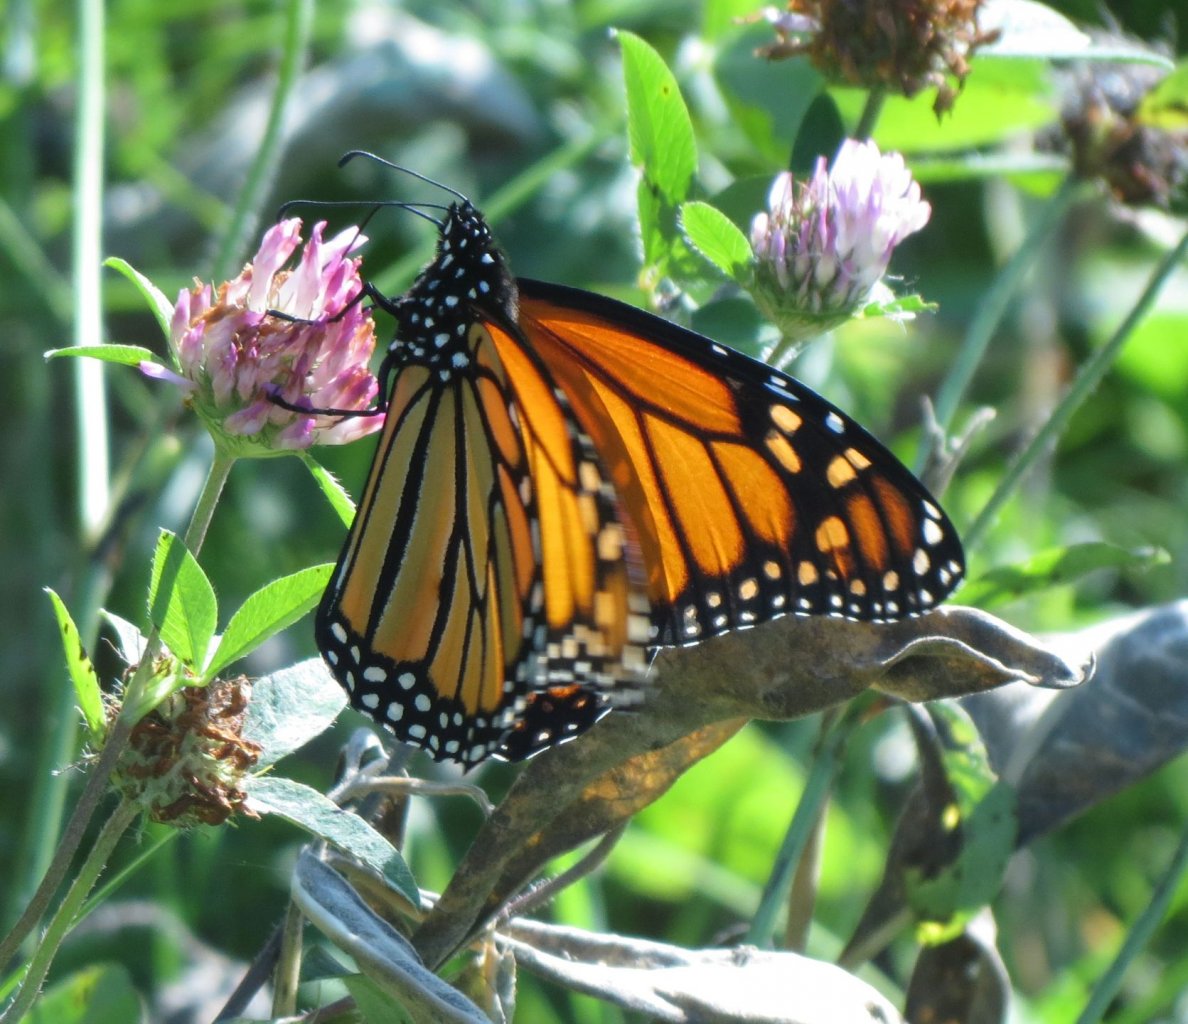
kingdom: Animalia
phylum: Arthropoda
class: Insecta
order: Lepidoptera
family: Nymphalidae
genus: Danaus
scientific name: Danaus plexippus
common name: Monarch
